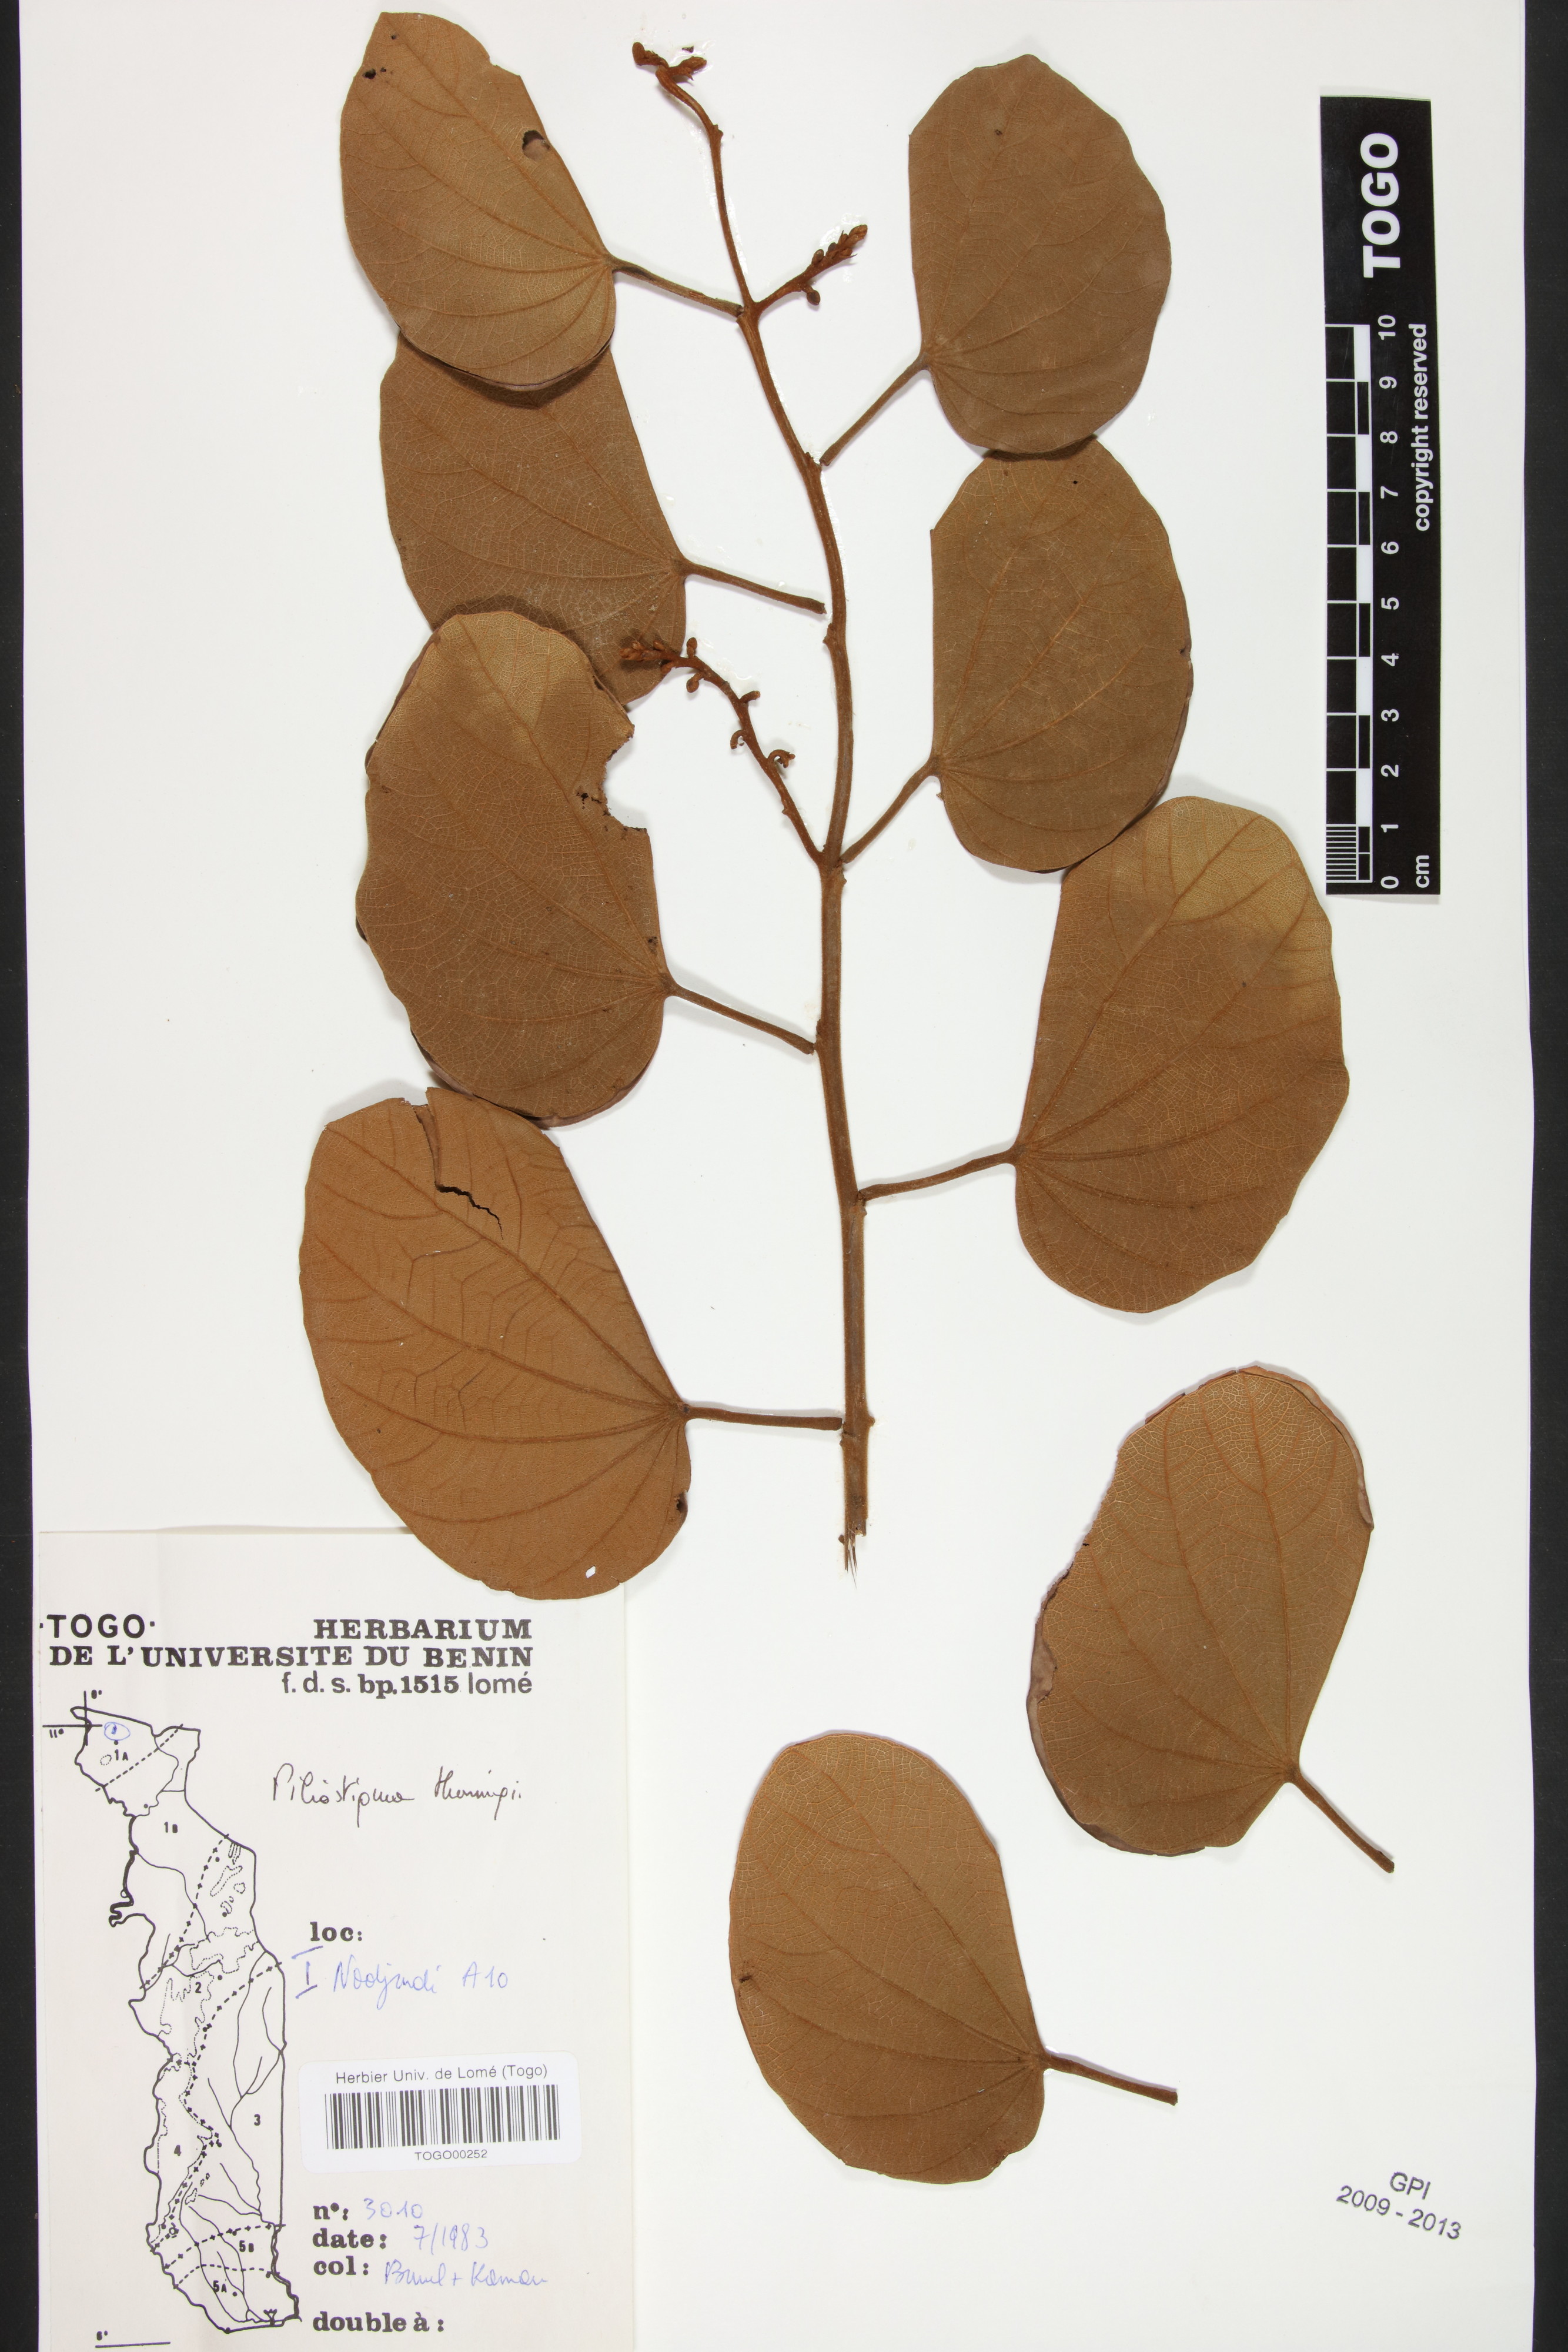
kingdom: Plantae
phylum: Tracheophyta
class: Magnoliopsida
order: Fabales
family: Fabaceae
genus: Piliostigma
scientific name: Piliostigma thonningii
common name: Kao
